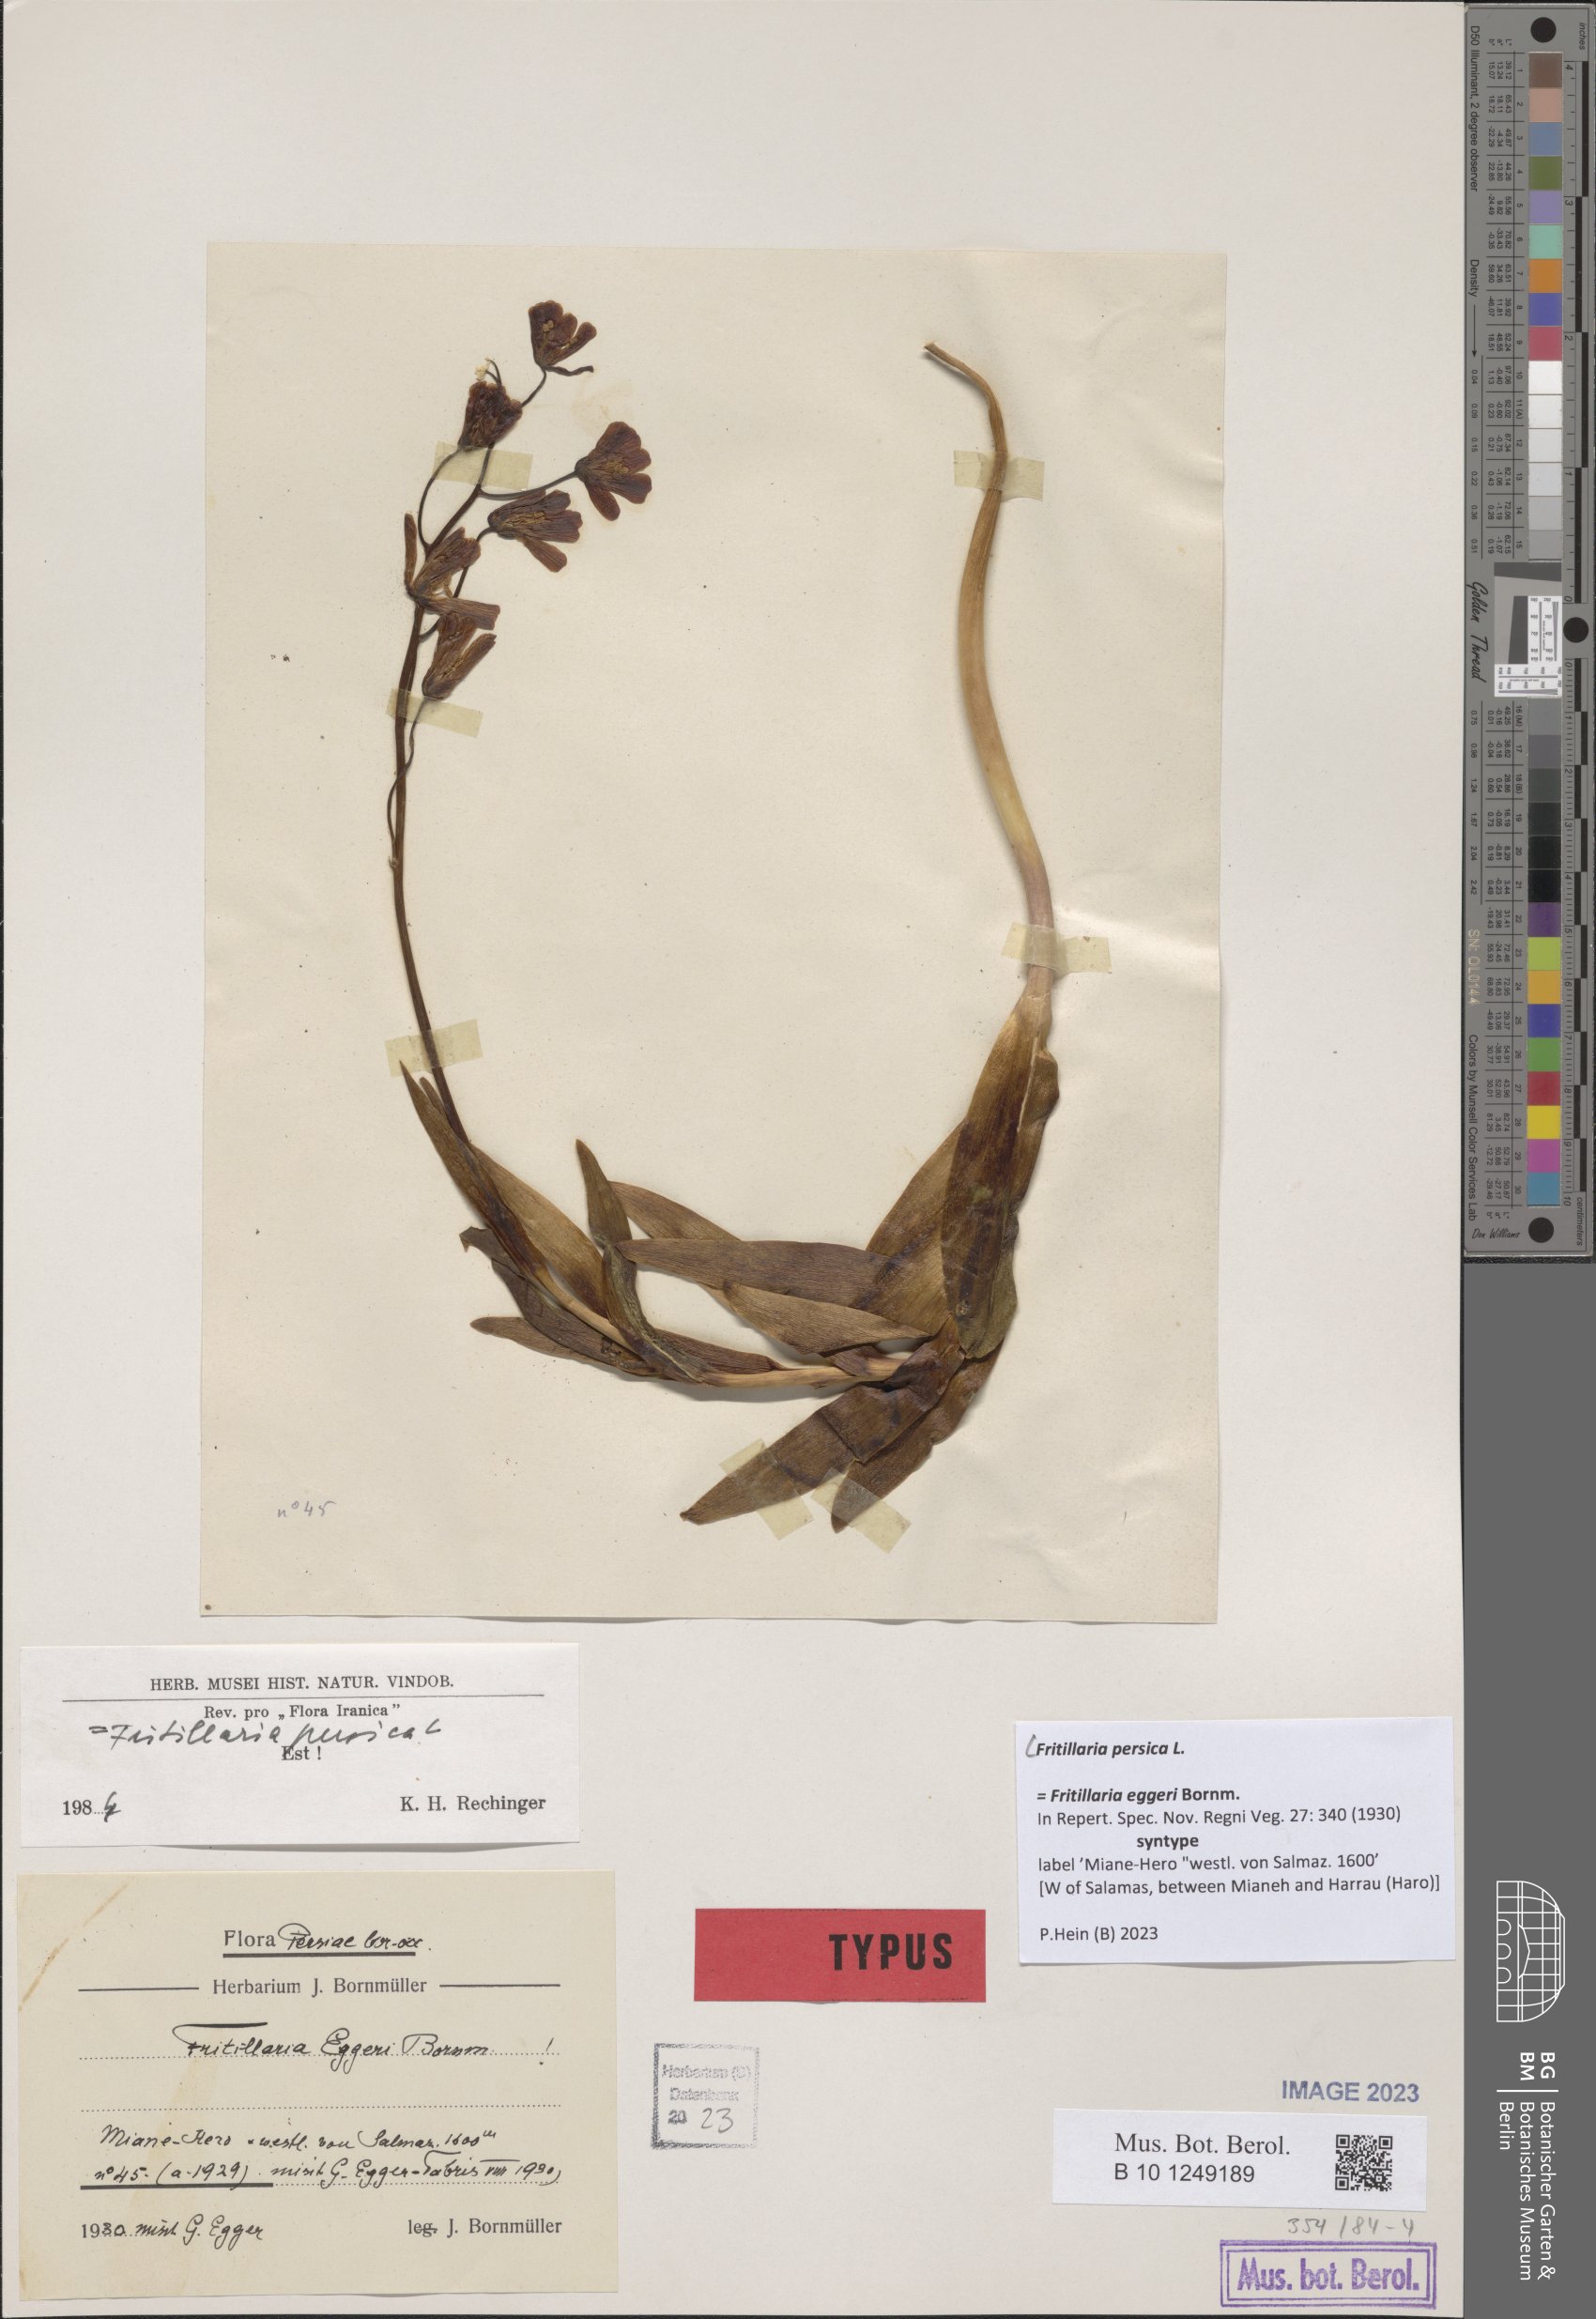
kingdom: Plantae
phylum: Tracheophyta
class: Liliopsida
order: Liliales
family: Liliaceae
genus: Fritillaria
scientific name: Fritillaria persica
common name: Persian fritillary
